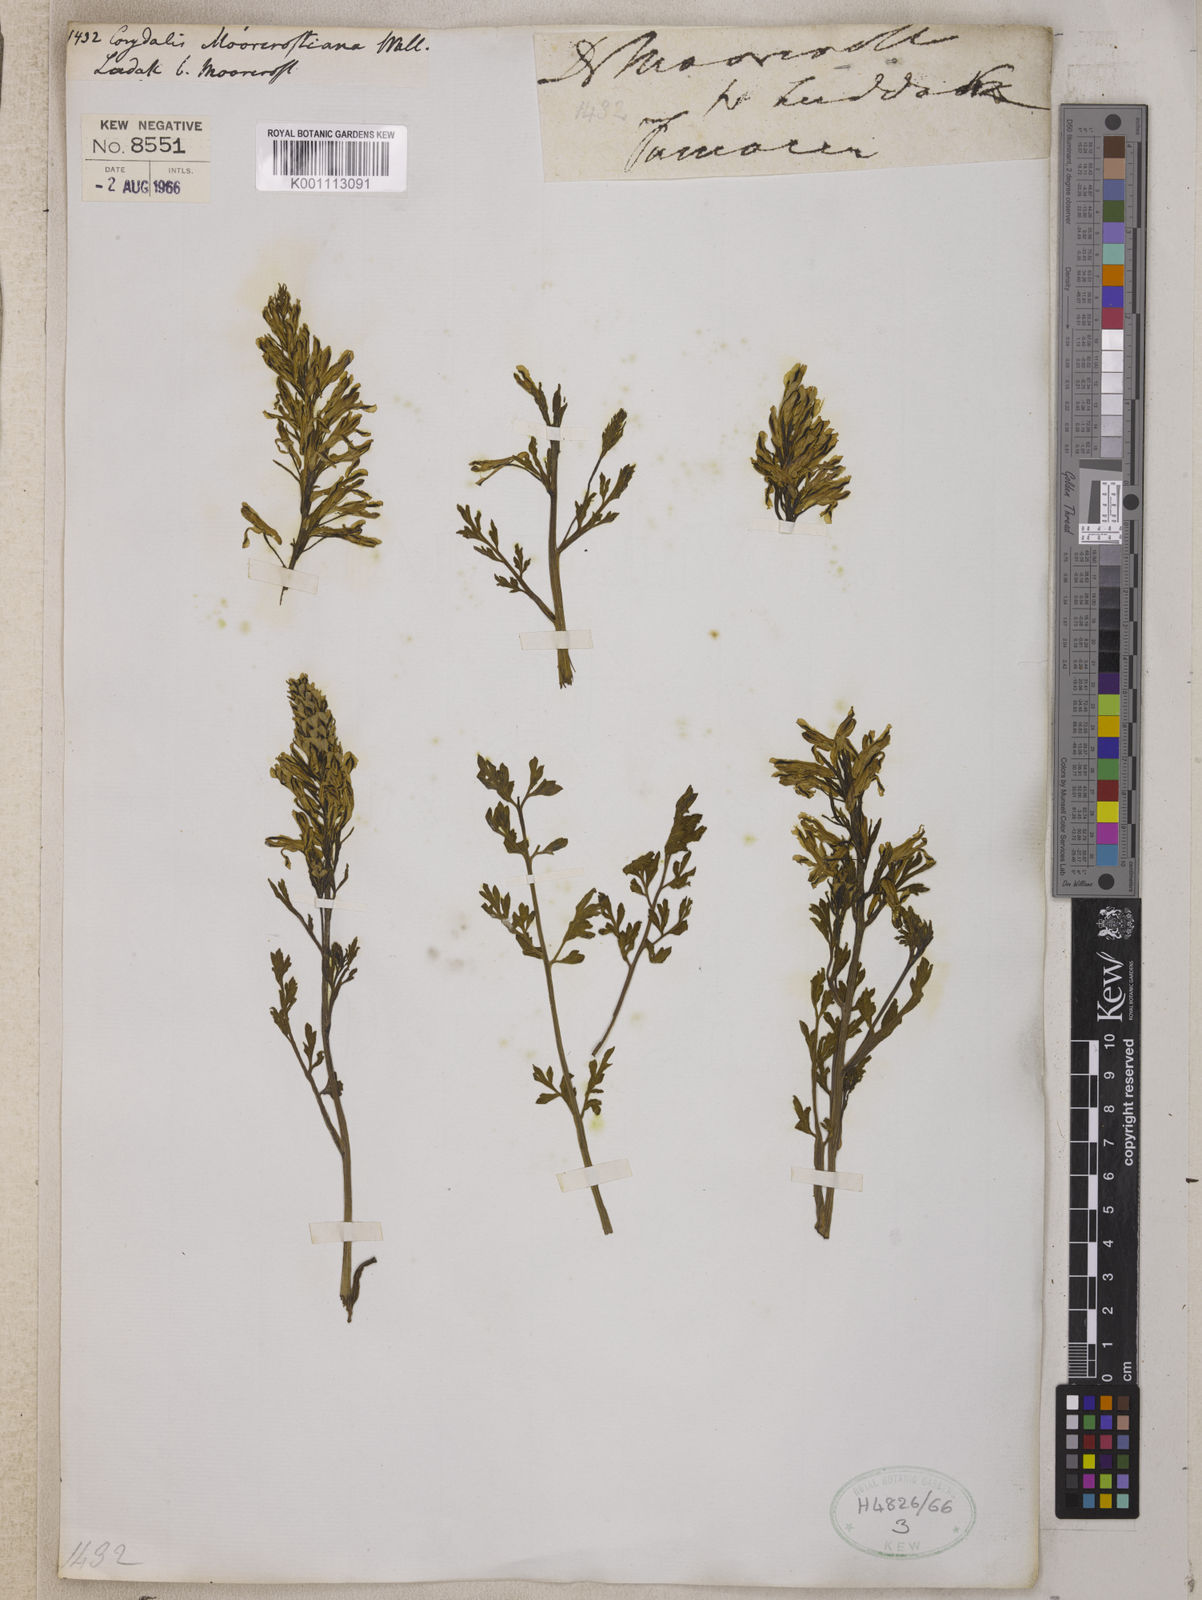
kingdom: Plantae
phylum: Tracheophyta
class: Magnoliopsida
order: Ranunculales
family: Papaveraceae
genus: Corydalis
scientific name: Corydalis
